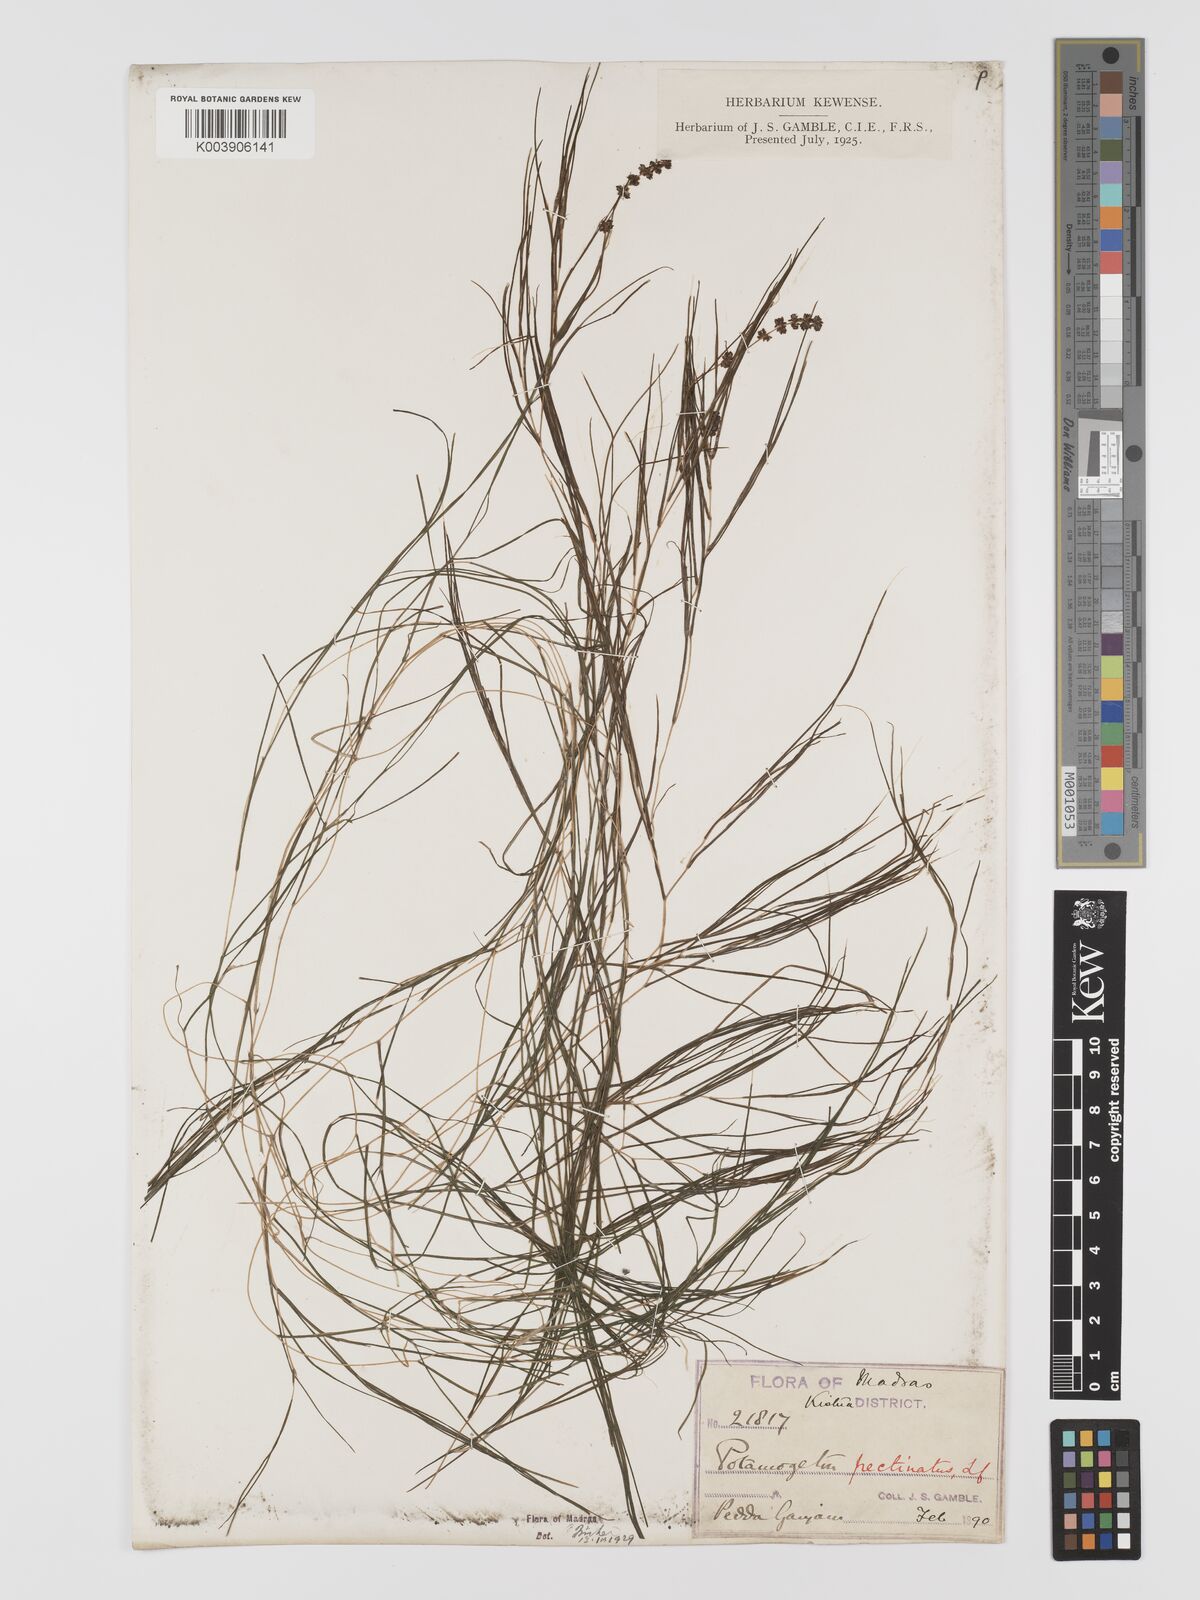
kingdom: Plantae
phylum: Tracheophyta
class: Liliopsida
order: Alismatales
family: Potamogetonaceae
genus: Stuckenia
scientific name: Stuckenia pectinata
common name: Sago pondweed
